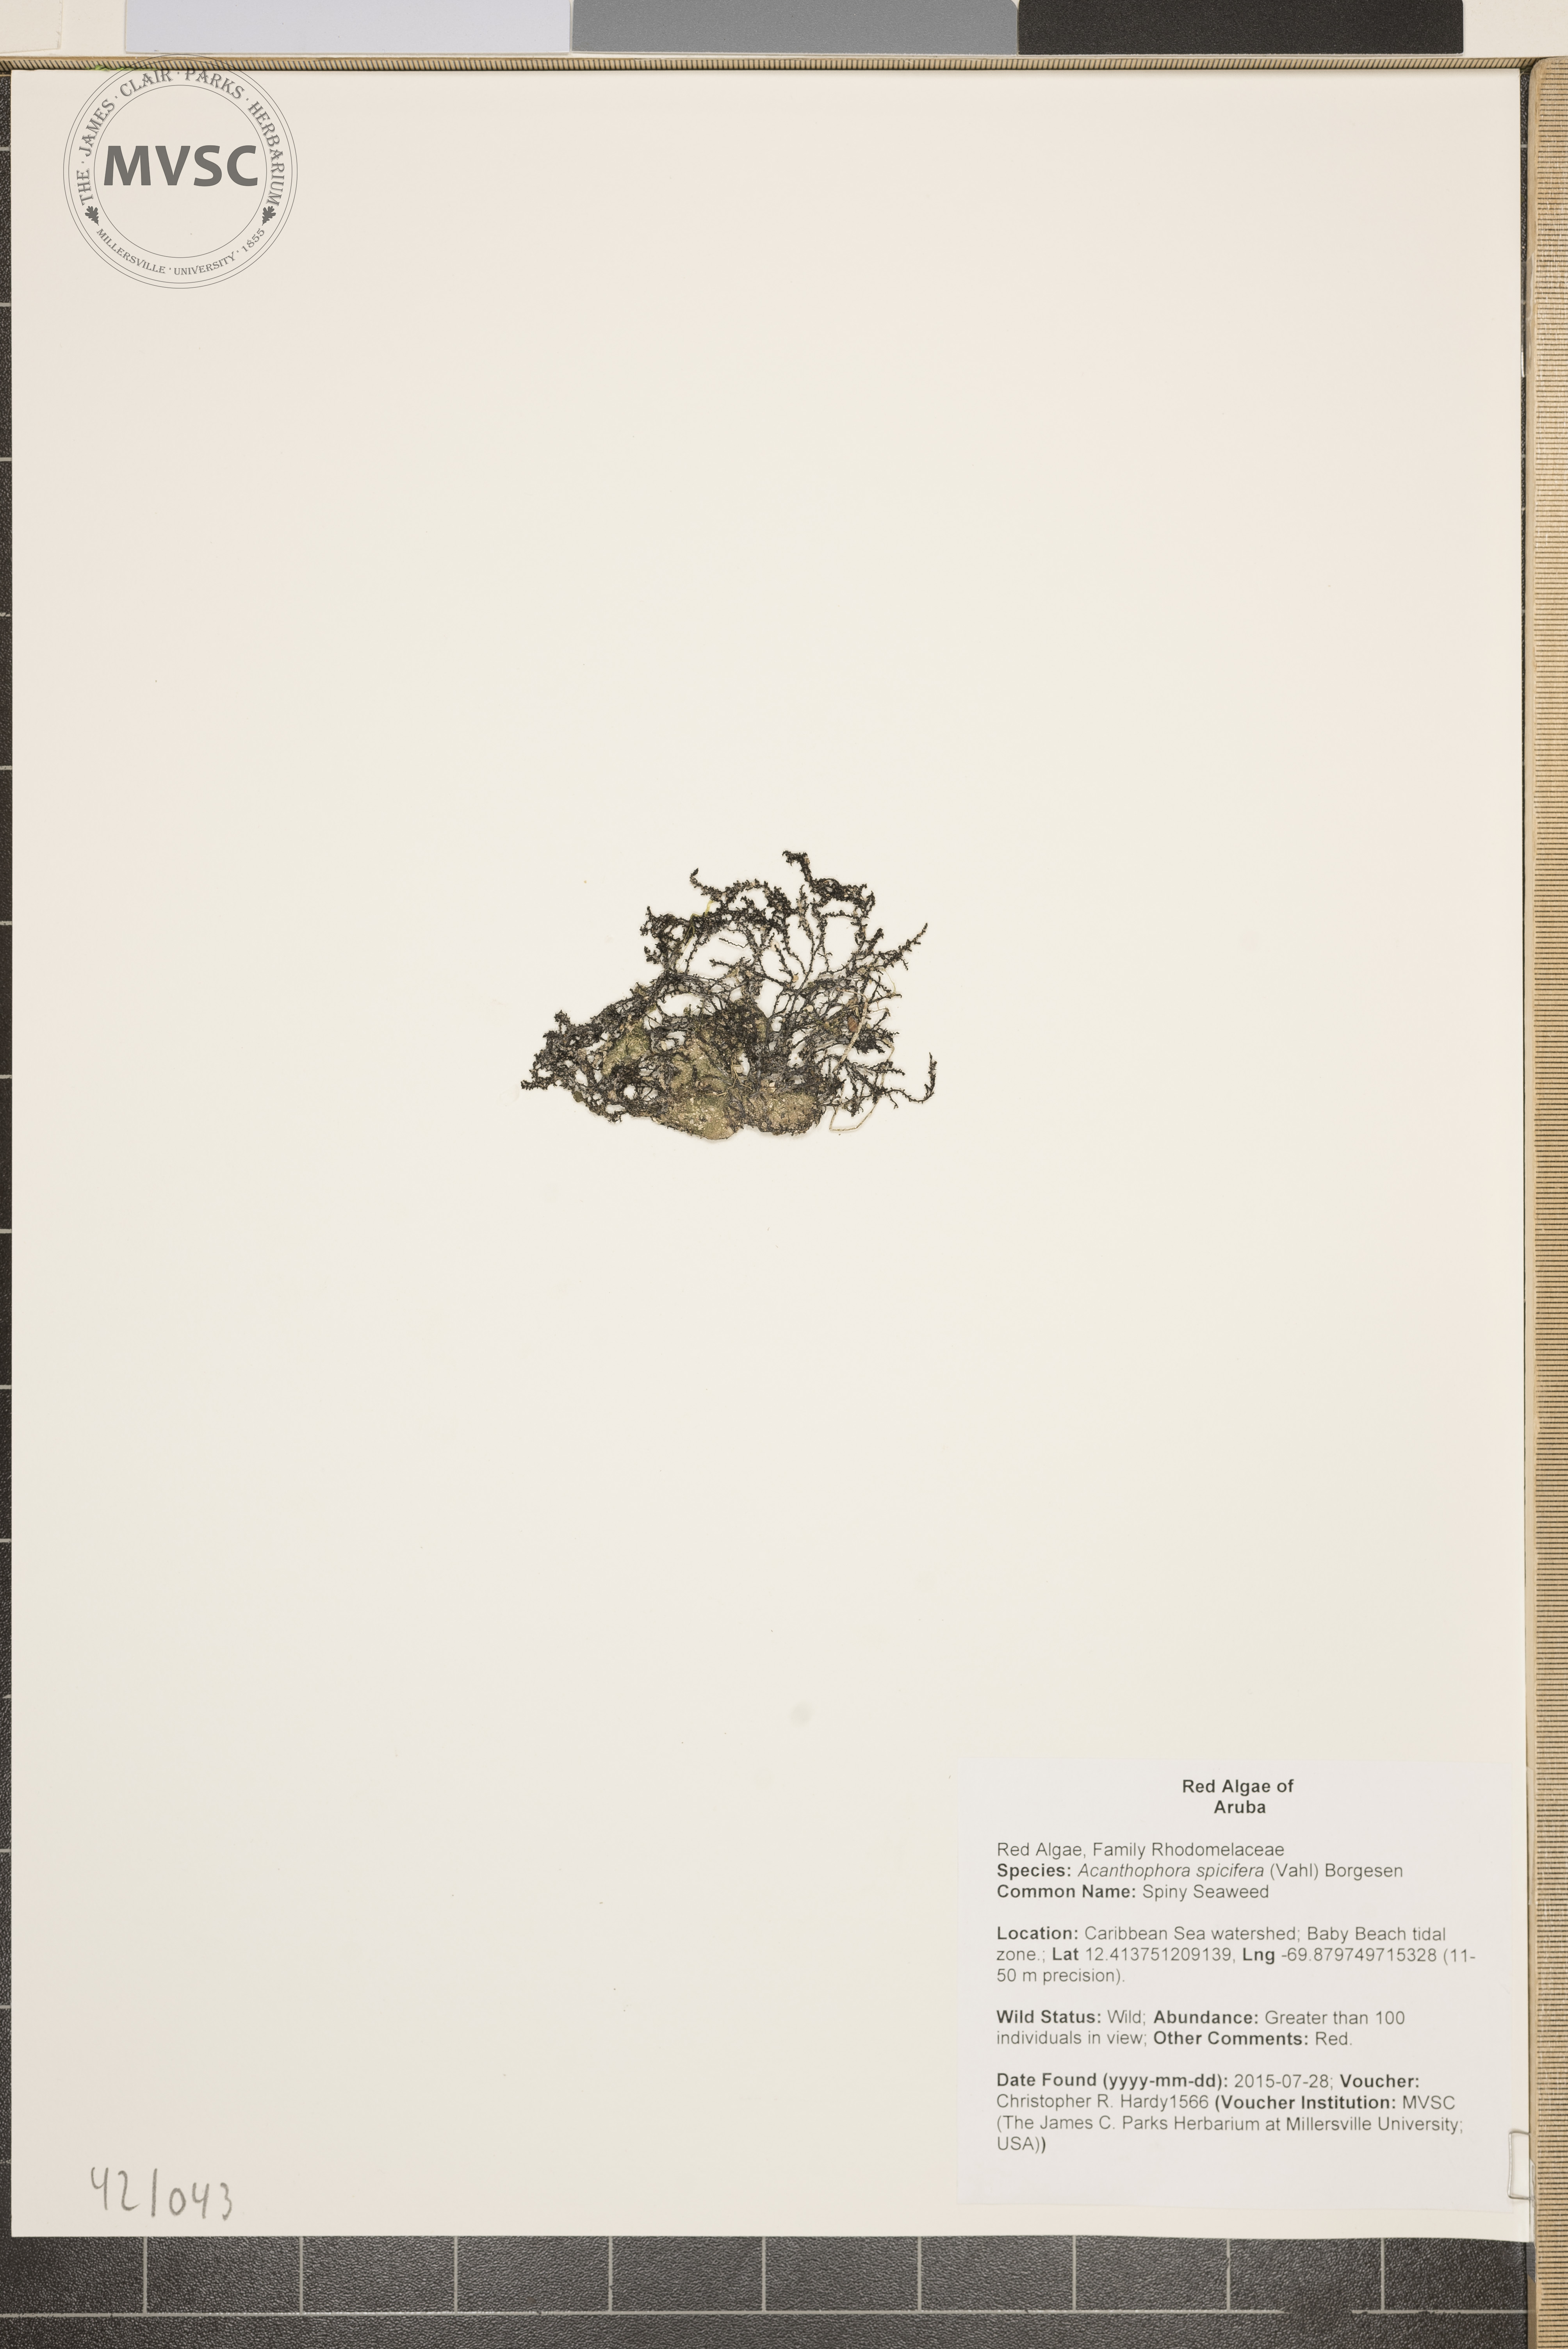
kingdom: Plantae
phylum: Rhodophyta
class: Florideophyceae
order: Ceramiales
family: Rhodomelaceae
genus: Acanthophora
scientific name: Acanthophora spicifera
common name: Spiny Seaweed
